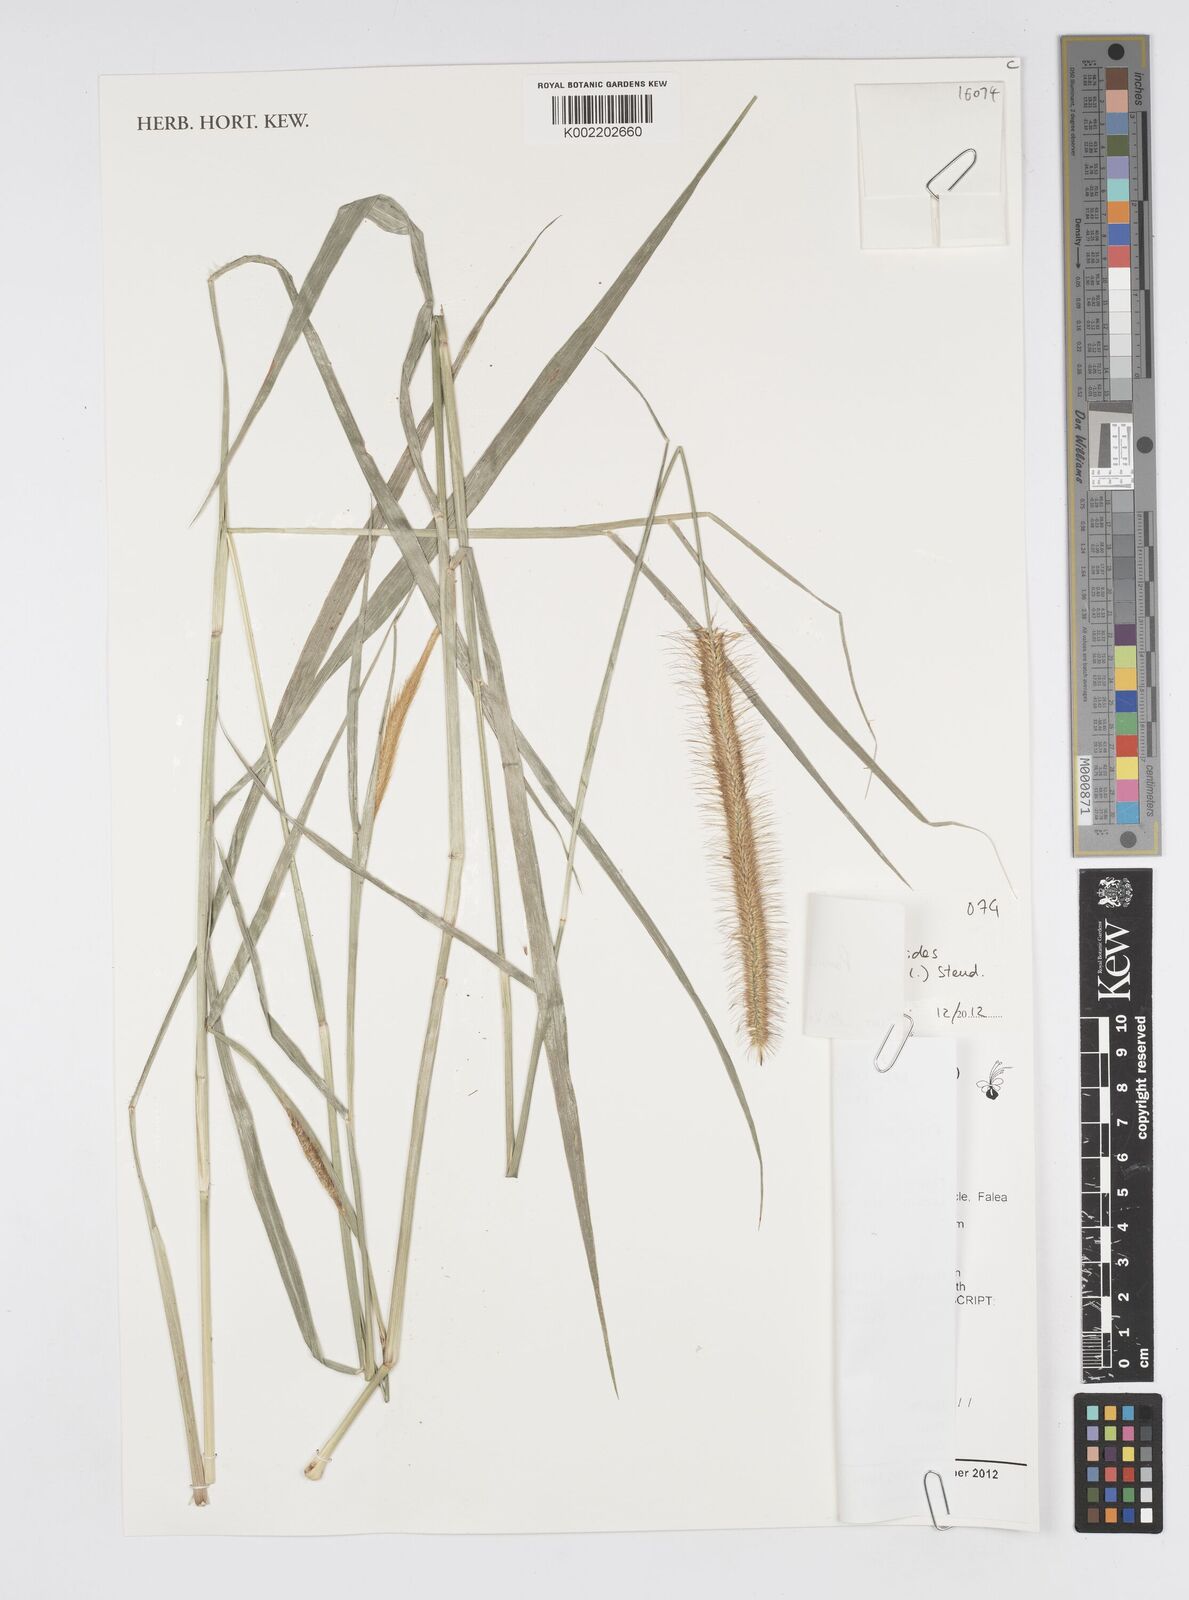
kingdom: Plantae
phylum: Tracheophyta
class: Liliopsida
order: Poales
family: Poaceae
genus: Cenchrus
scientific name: Cenchrus hordeoides
